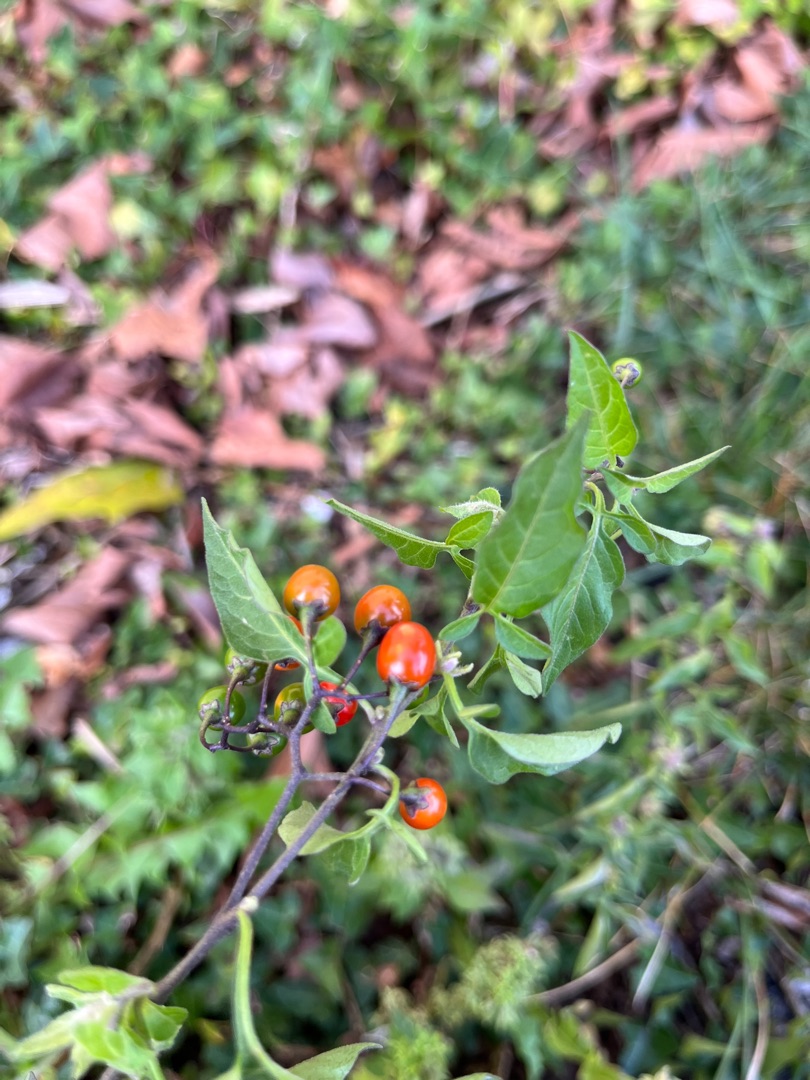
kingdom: Plantae
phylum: Tracheophyta
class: Magnoliopsida
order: Solanales
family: Solanaceae
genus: Solanum
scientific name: Solanum dulcamara
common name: Bittersød natskygge
